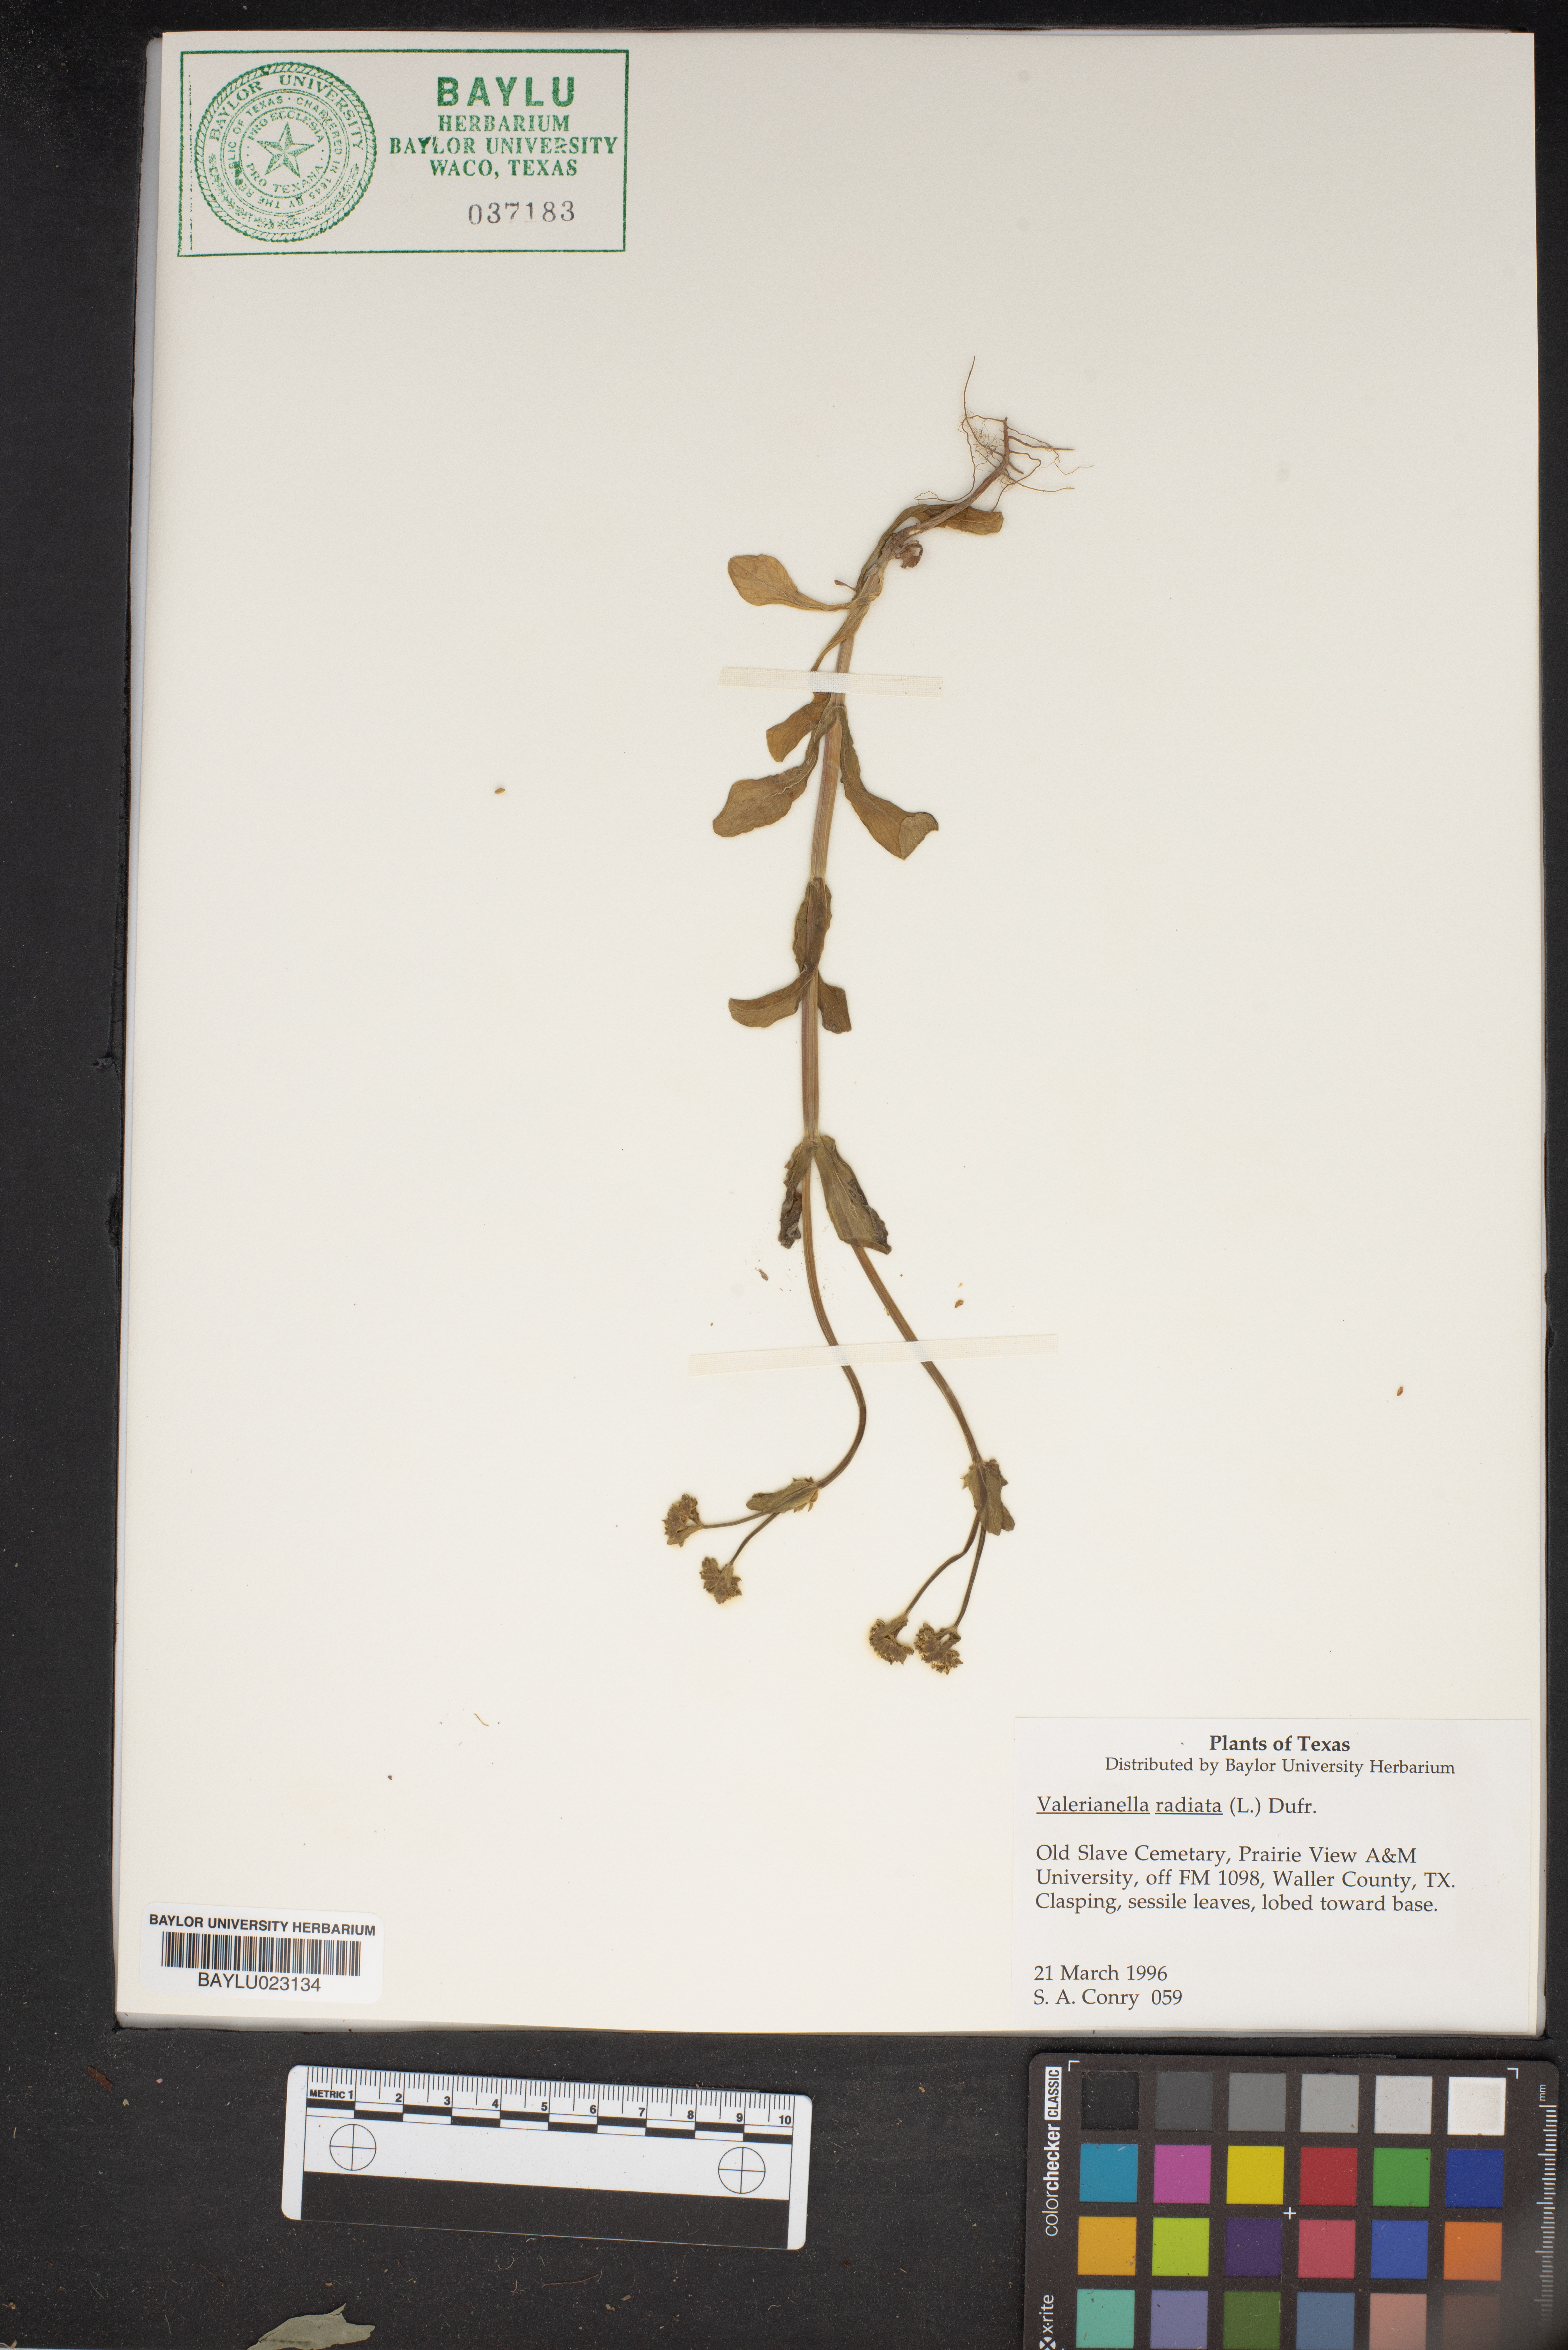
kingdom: Plantae
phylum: Tracheophyta
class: Magnoliopsida
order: Dipsacales
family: Caprifoliaceae
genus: Valerianella
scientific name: Valerianella radiata
